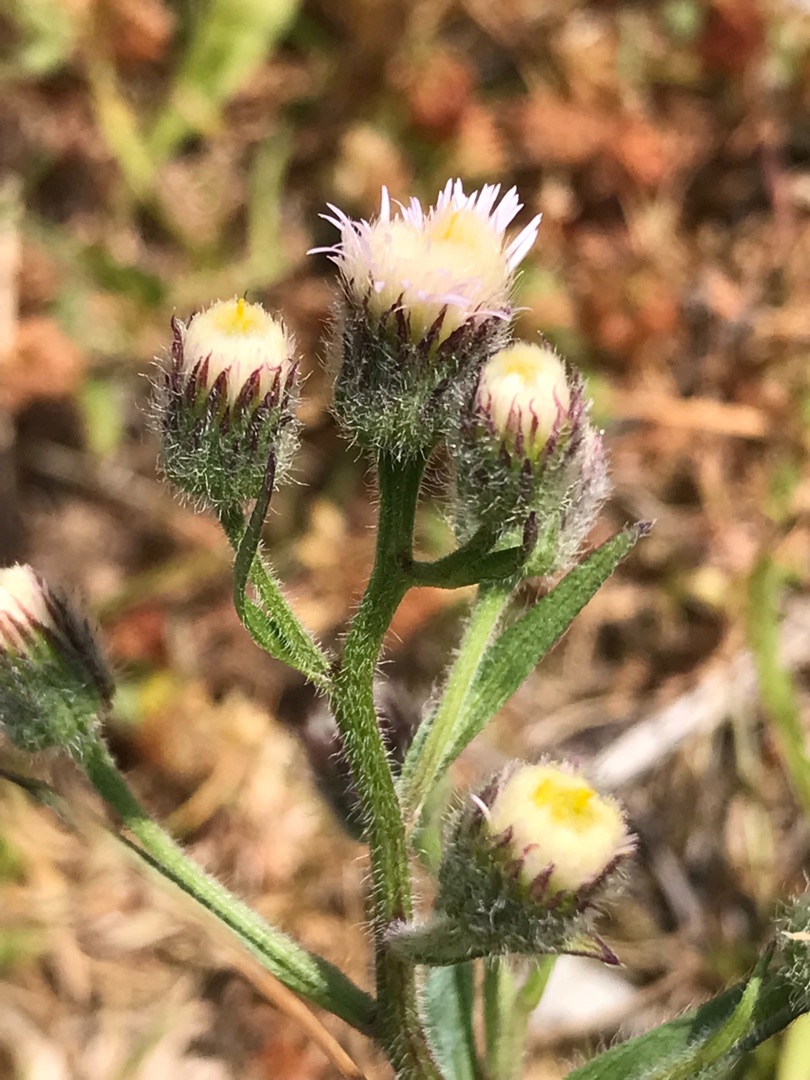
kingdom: Plantae
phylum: Tracheophyta
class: Magnoliopsida
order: Asterales
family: Asteraceae
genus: Erigeron
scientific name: Erigeron acris
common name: Bitter bakkestjerne
